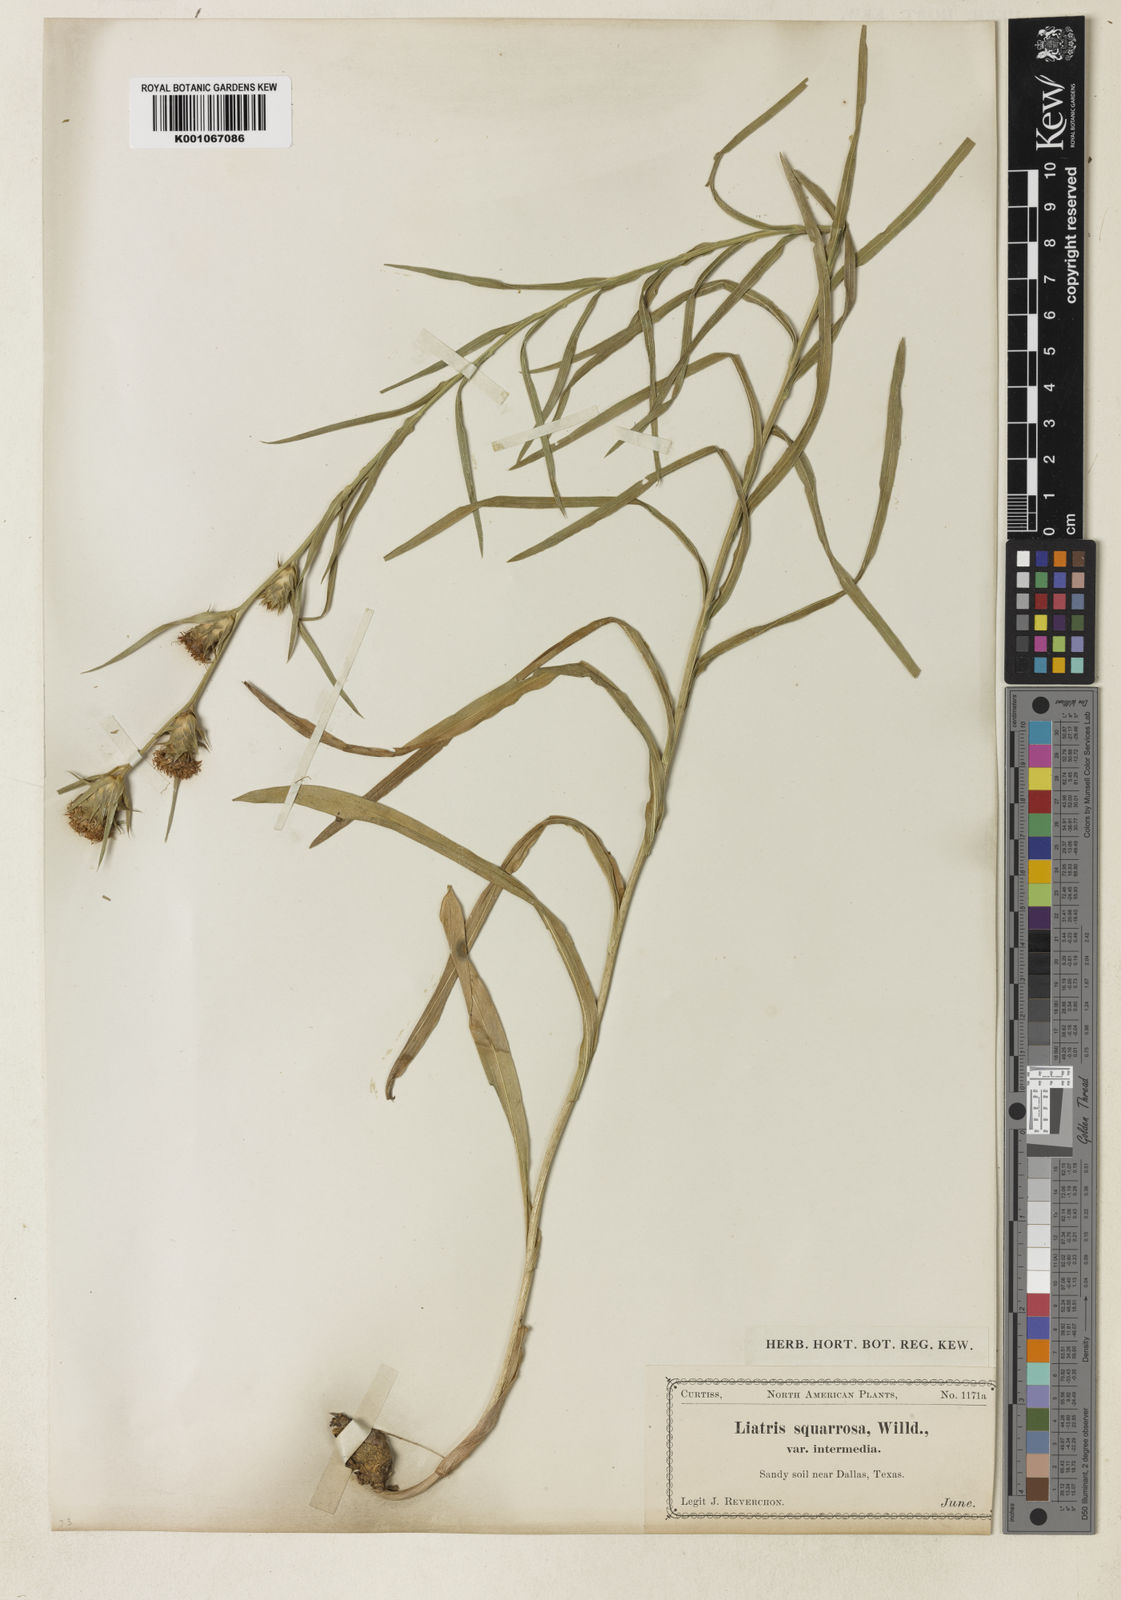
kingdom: Plantae
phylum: Tracheophyta
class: Magnoliopsida
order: Asterales
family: Asteraceae
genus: Liatris
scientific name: Liatris squarrosa
